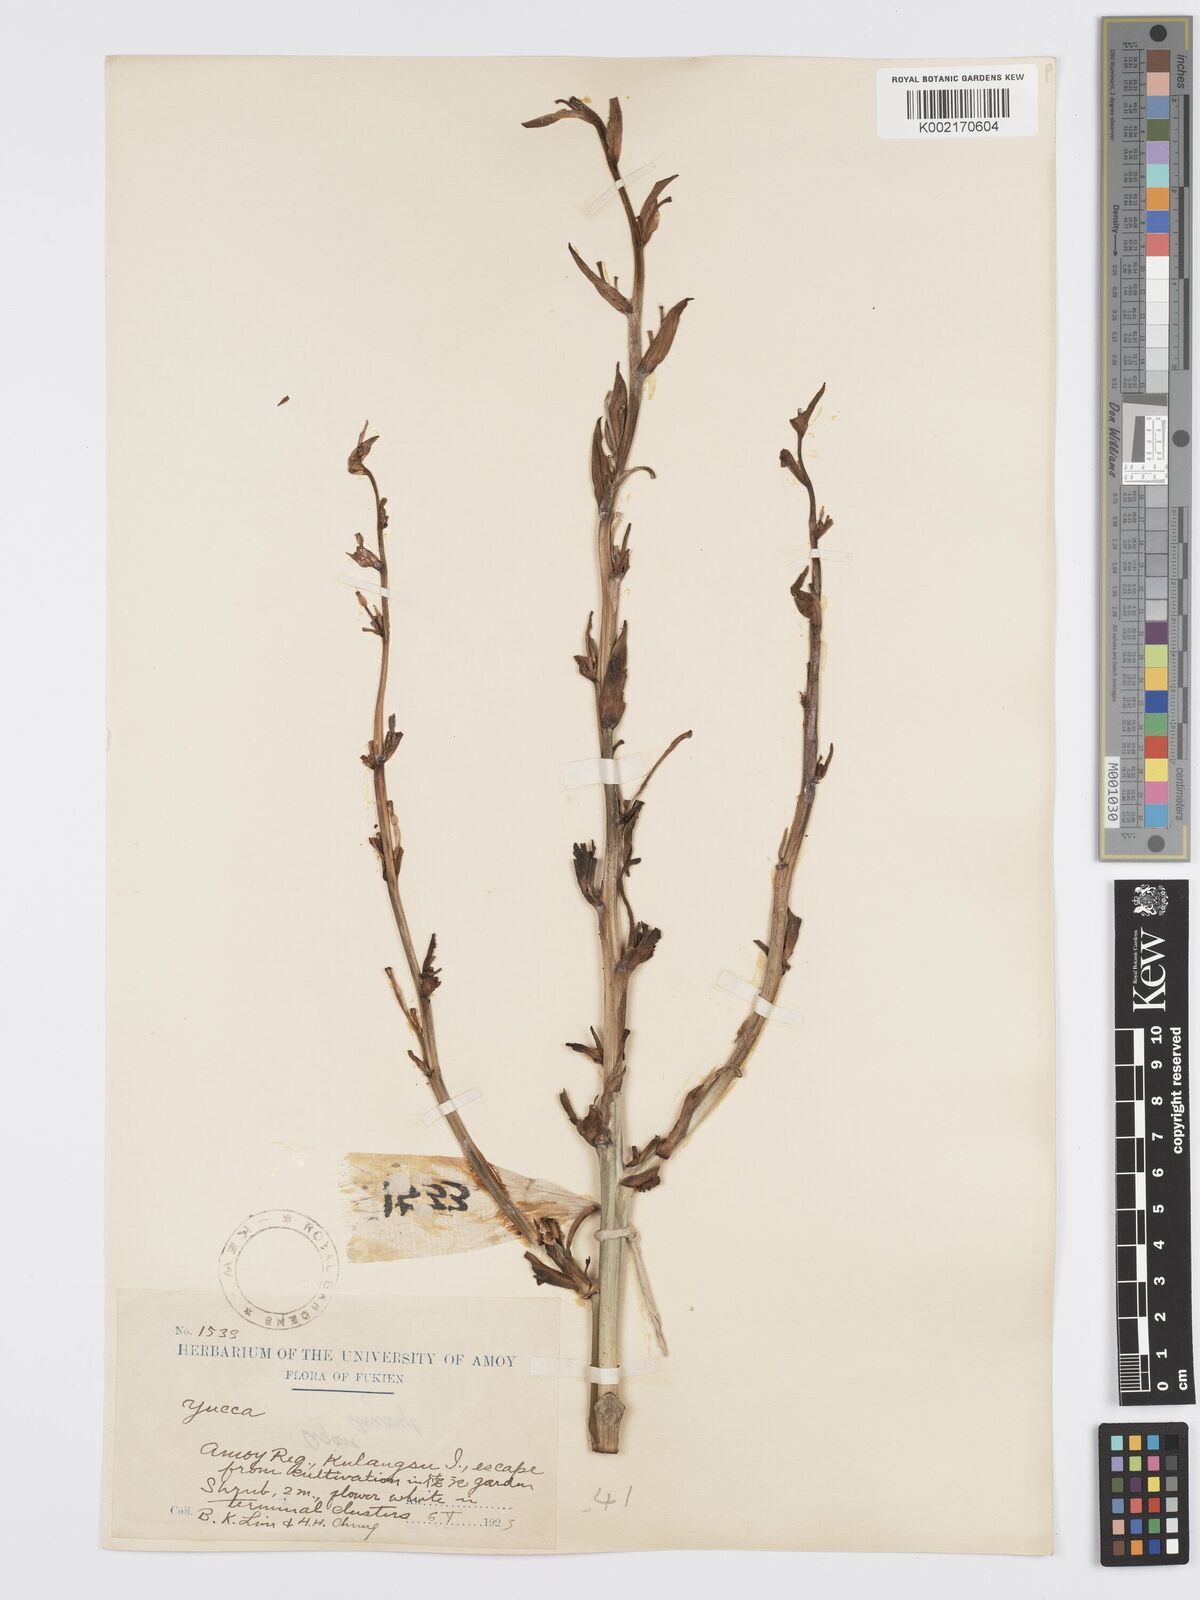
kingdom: Plantae
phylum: Tracheophyta
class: Liliopsida
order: Asparagales
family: Asparagaceae
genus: Yucca
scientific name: Yucca aloifolia
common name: Aloe yucca
